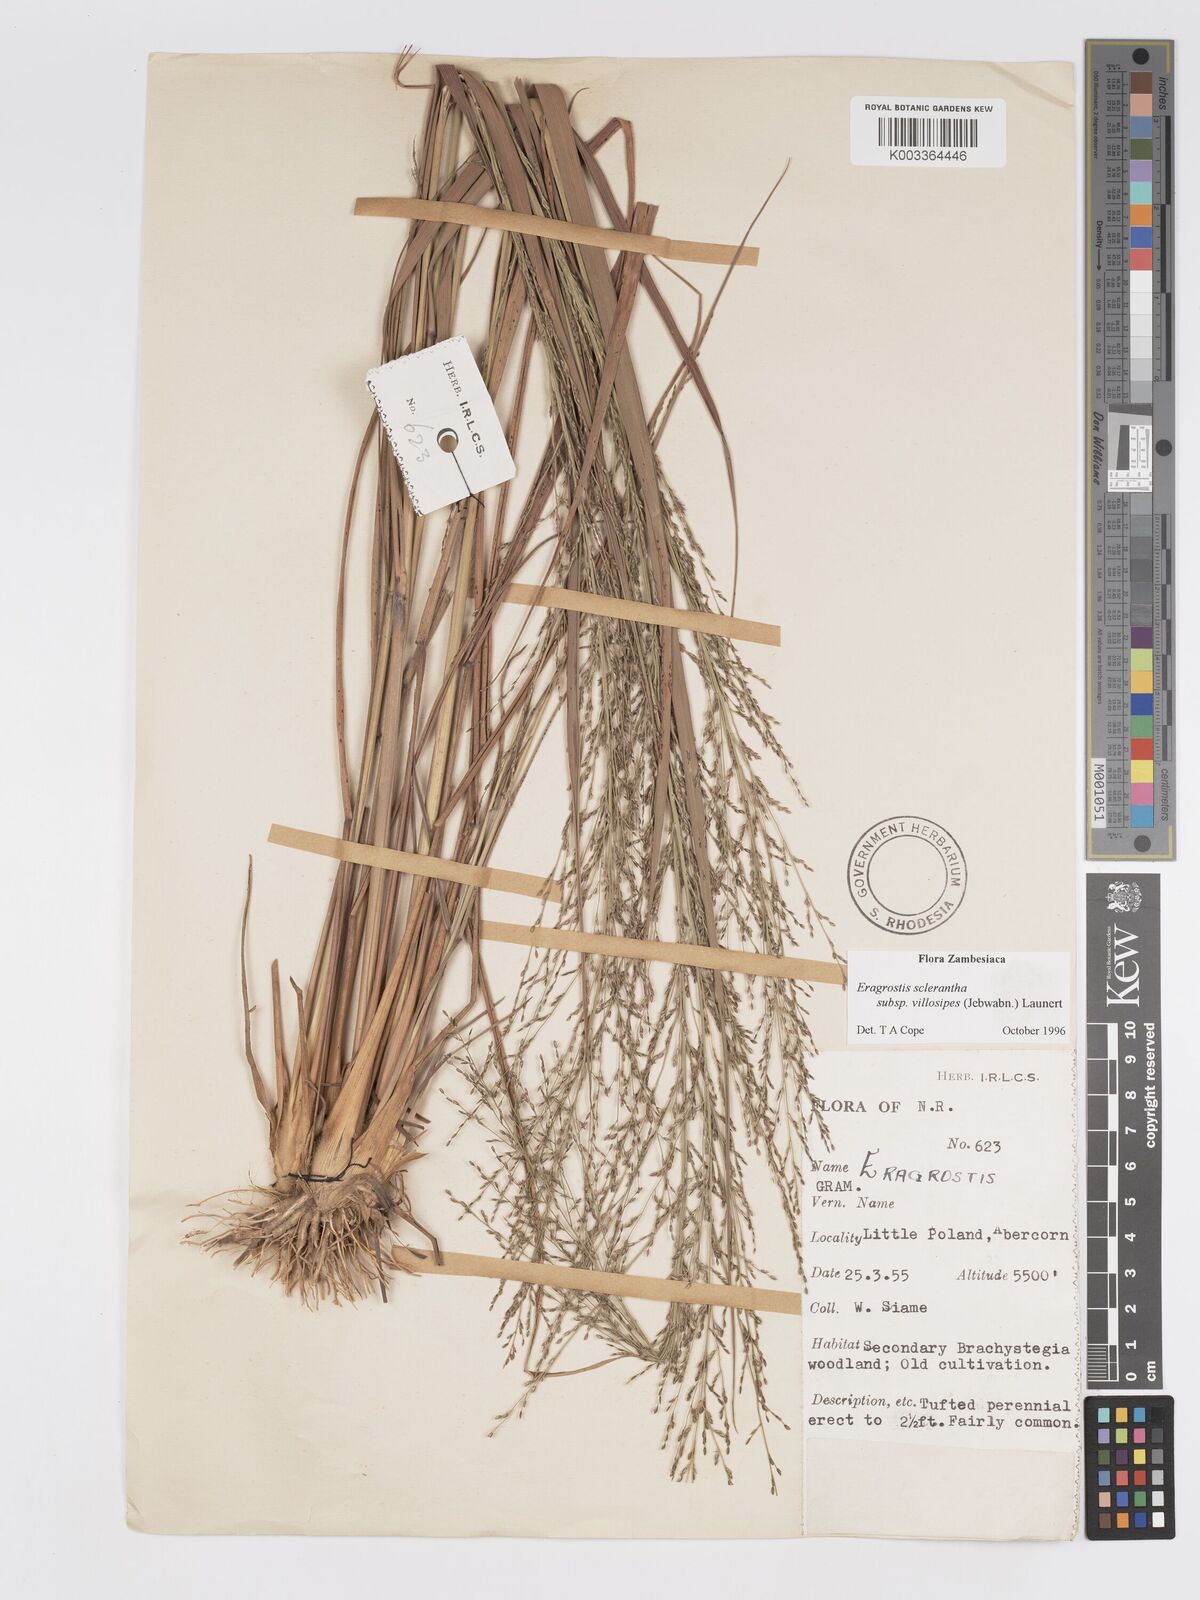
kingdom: Plantae
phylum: Tracheophyta
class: Liliopsida
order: Poales
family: Poaceae
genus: Eragrostis
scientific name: Eragrostis sclerantha
